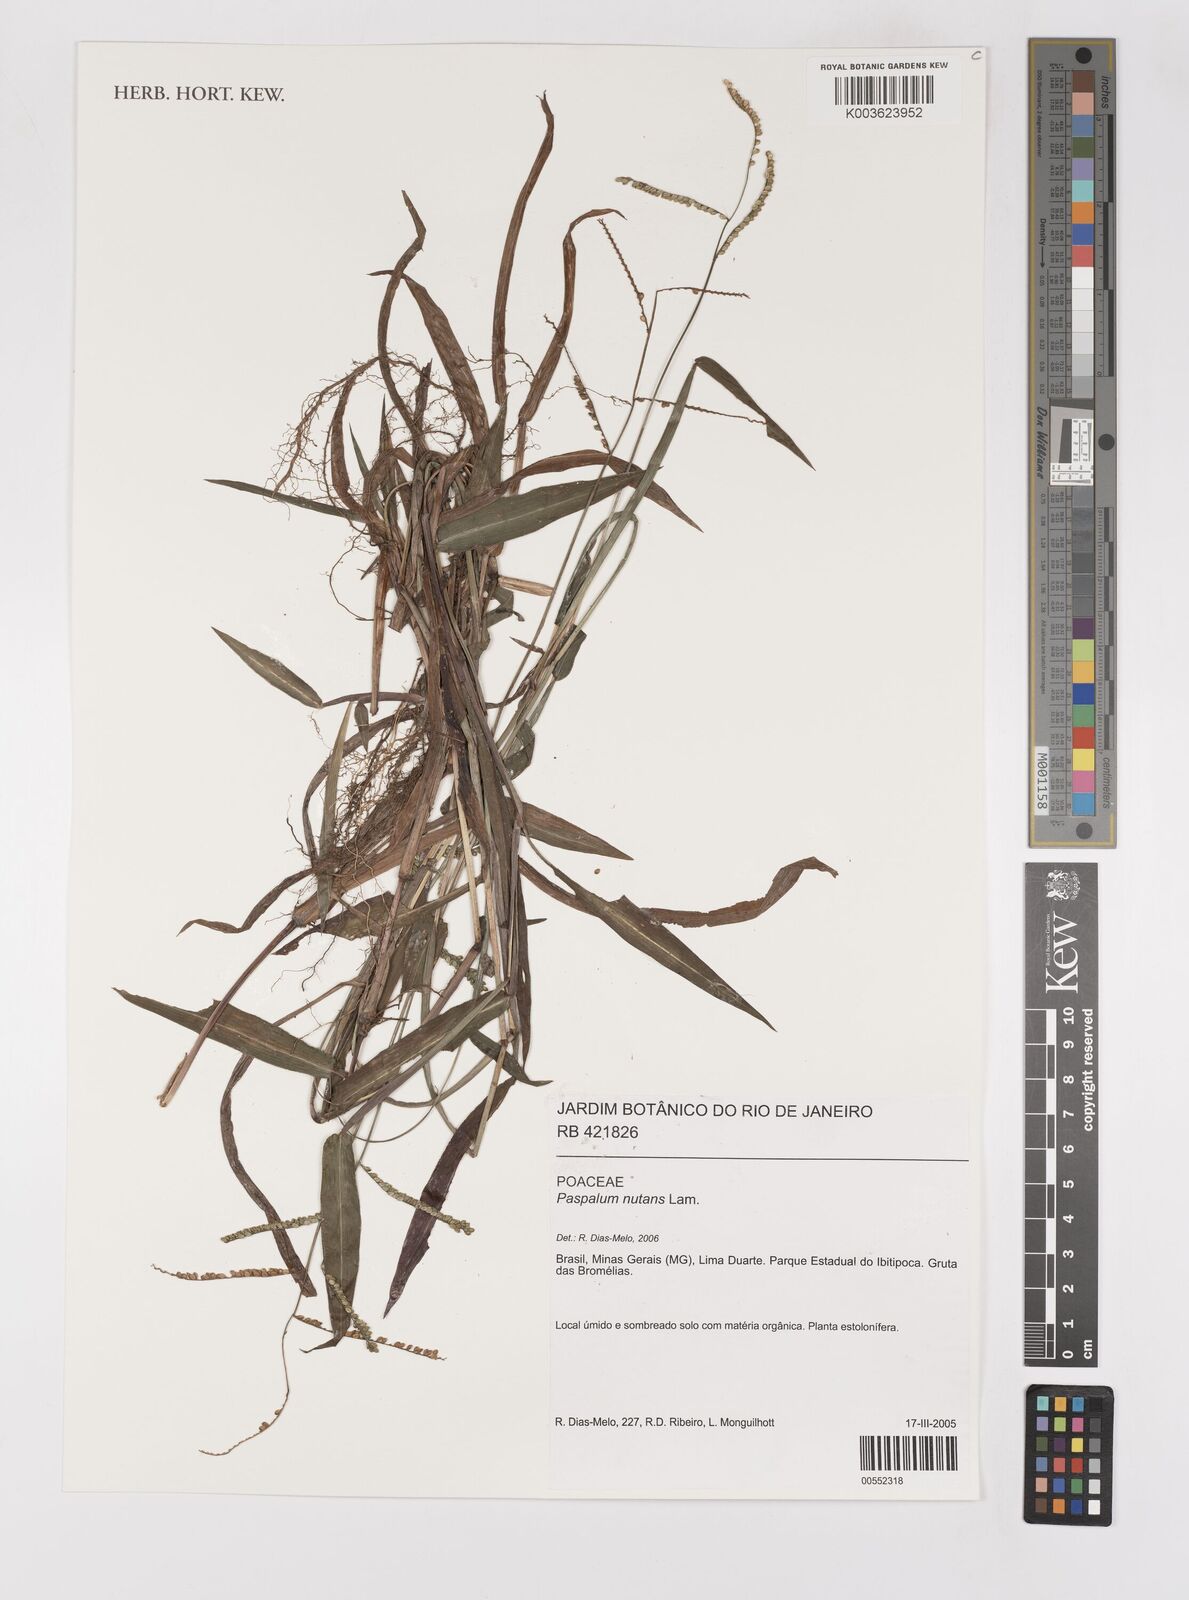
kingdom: Plantae
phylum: Tracheophyta
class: Liliopsida
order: Poales
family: Poaceae
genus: Paspalum
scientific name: Paspalum nutans
